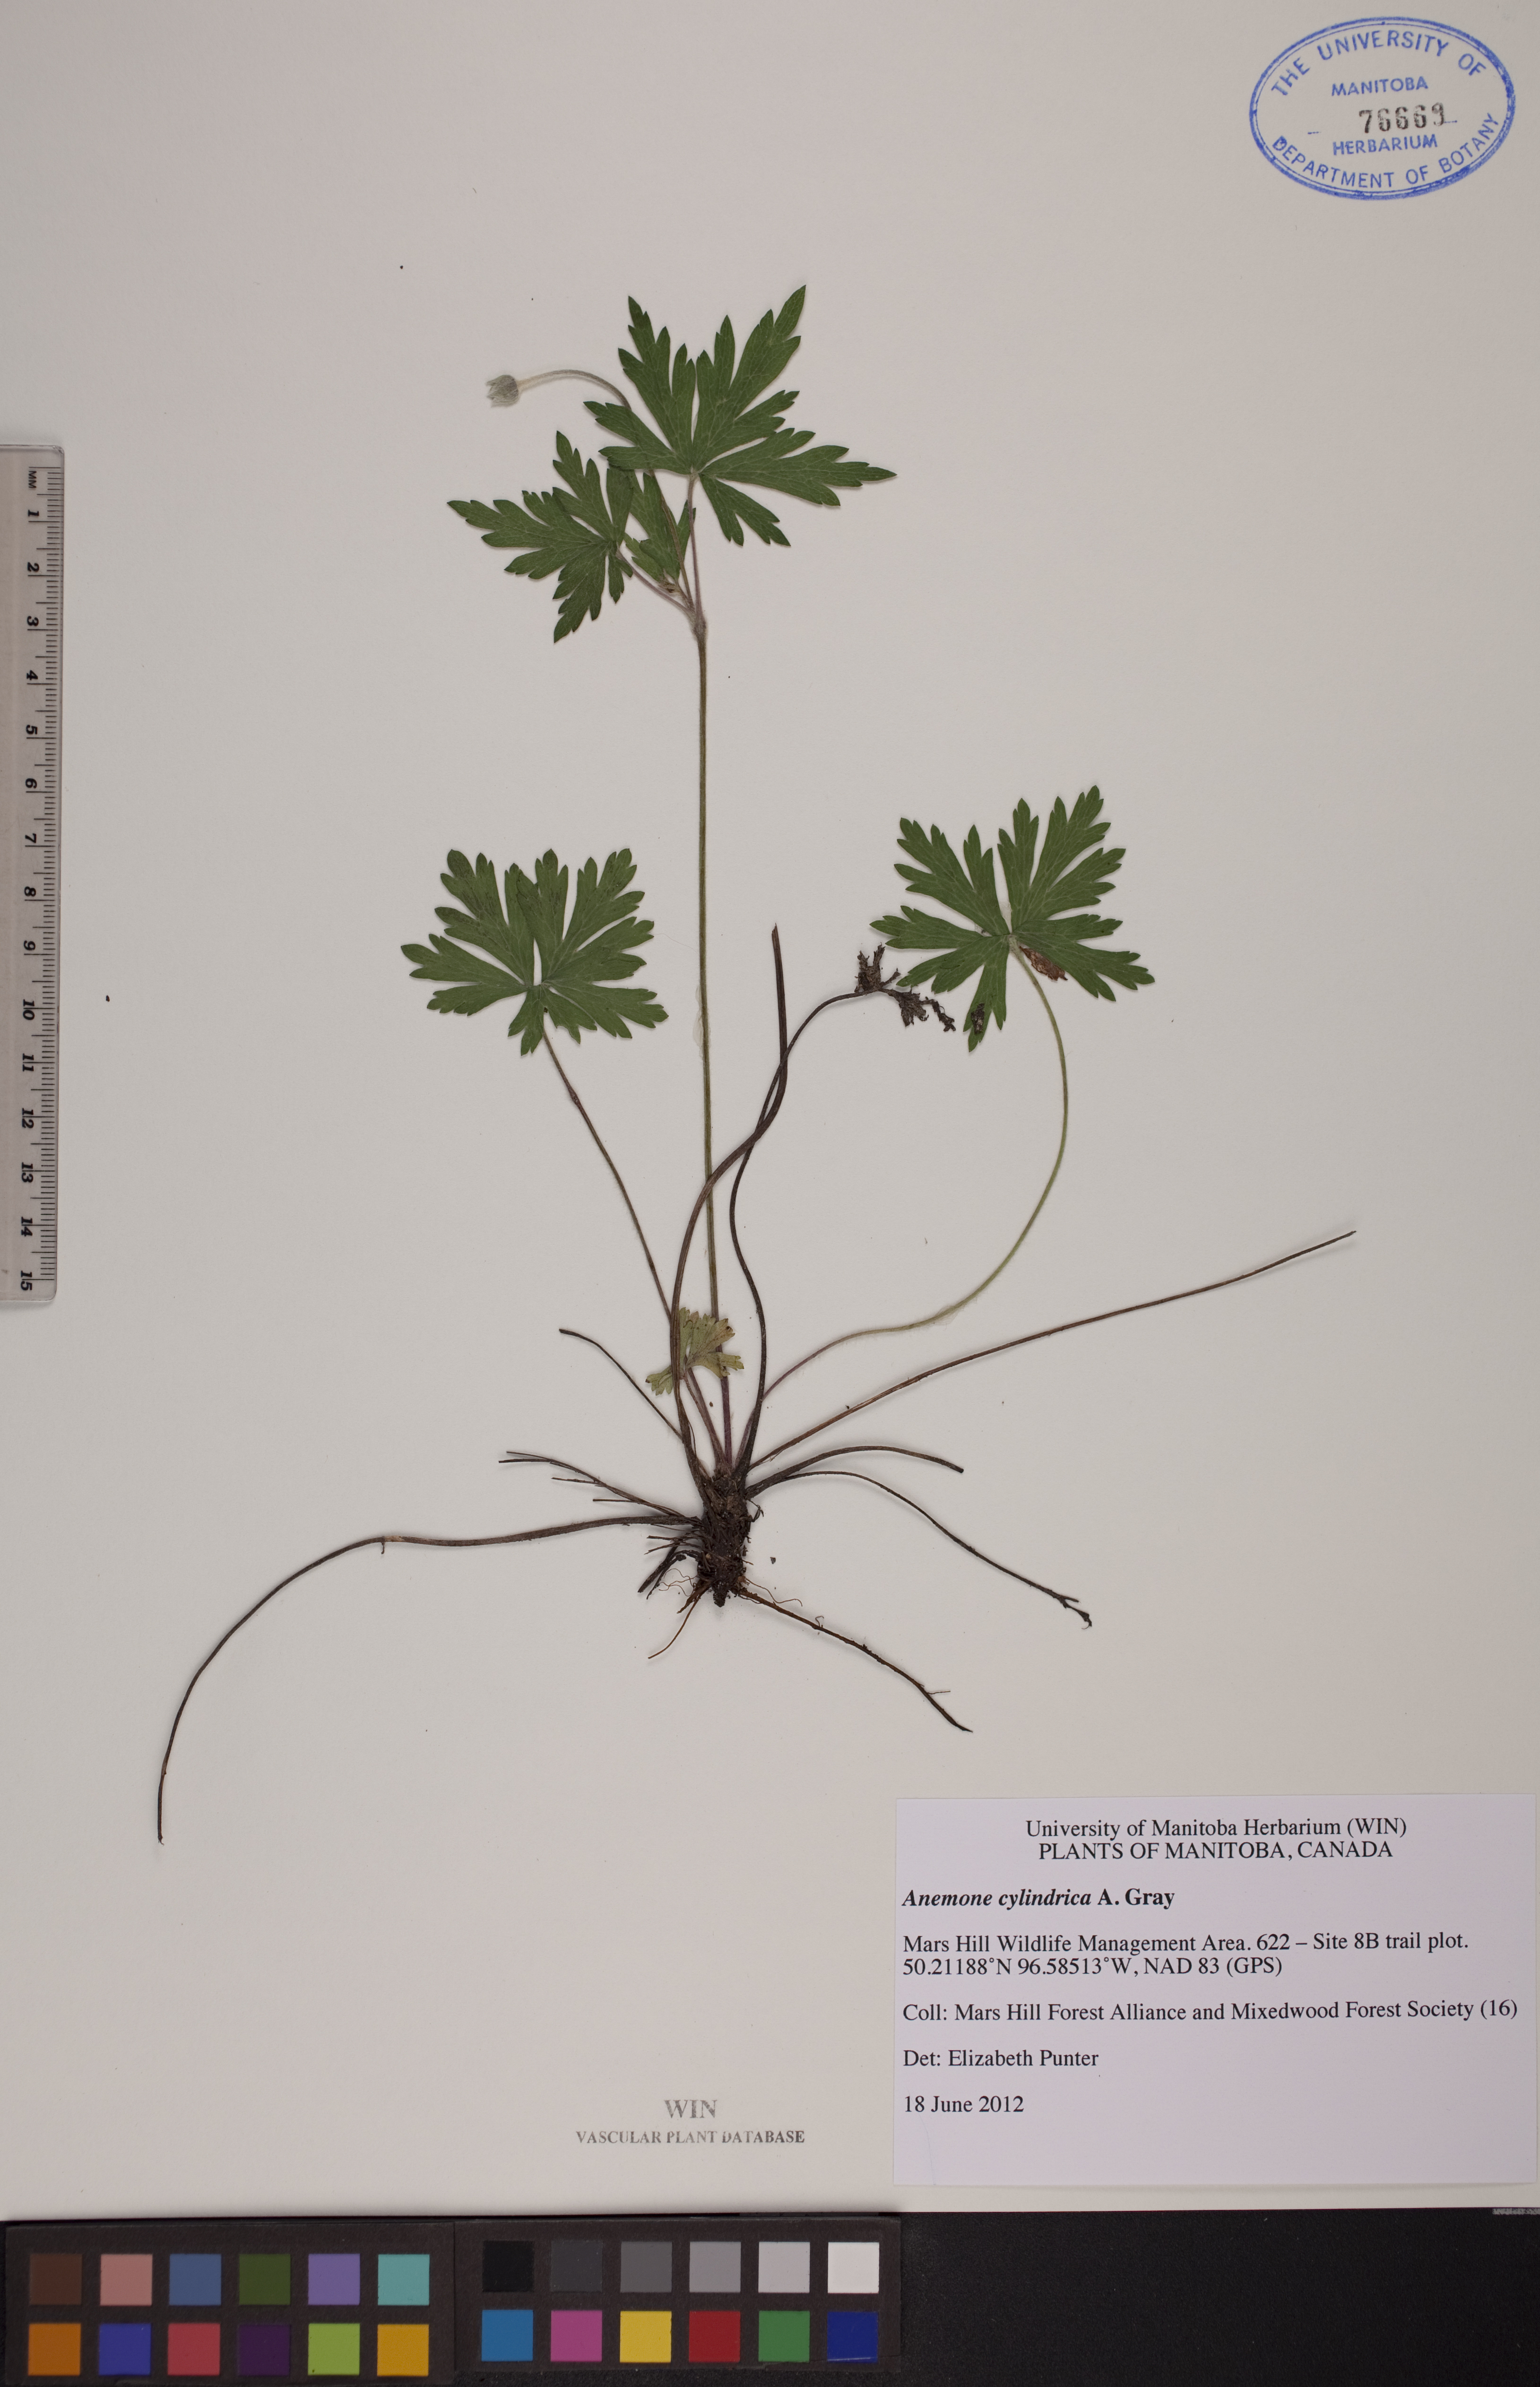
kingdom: Plantae
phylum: Tracheophyta
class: Magnoliopsida
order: Ranunculales
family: Ranunculaceae
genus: Anemone
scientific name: Anemone cylindrica
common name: Candle anemone
